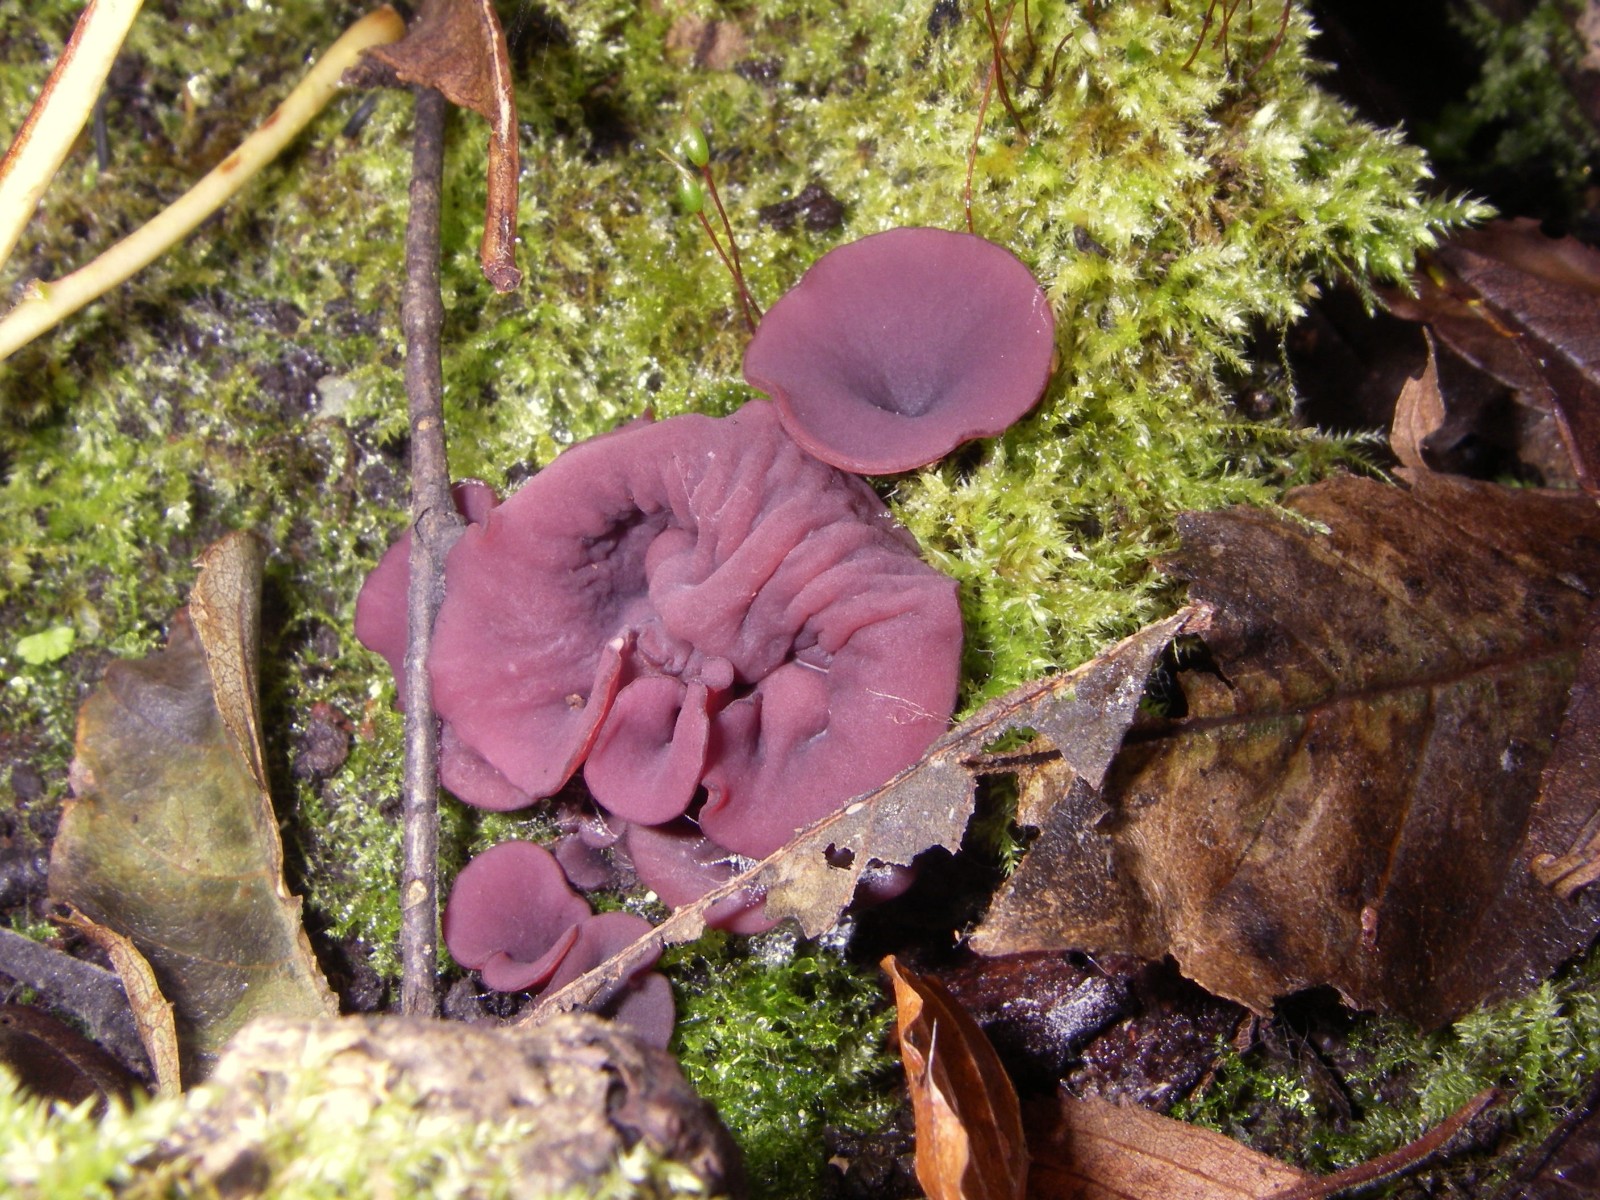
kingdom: Fungi
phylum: Ascomycota
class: Leotiomycetes
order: Helotiales
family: Gelatinodiscaceae
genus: Ascocoryne
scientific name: Ascocoryne cylichnium
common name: stor sejskive
